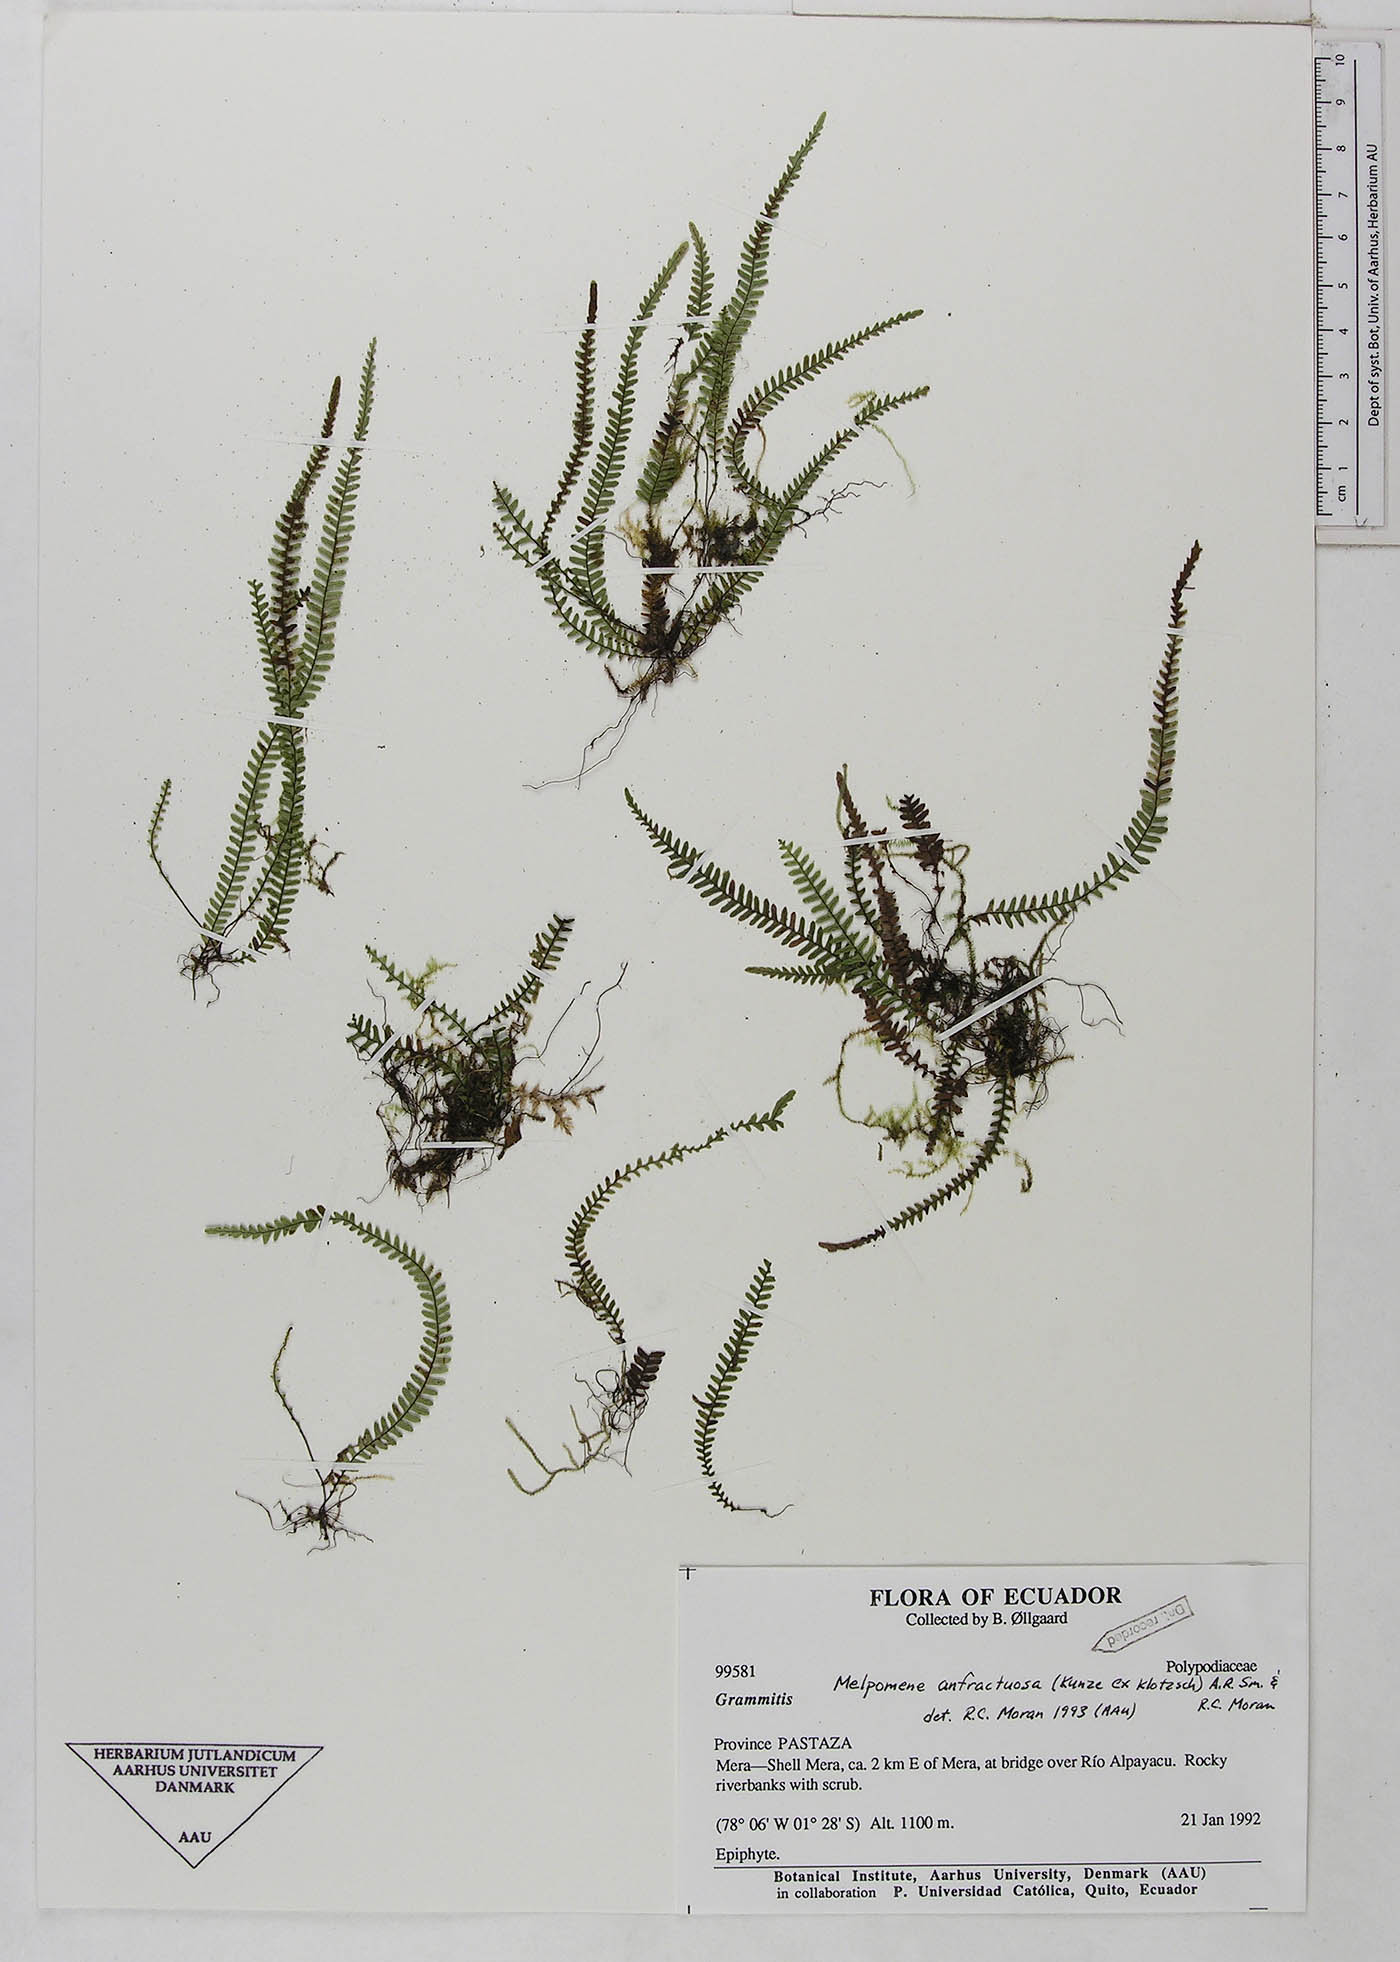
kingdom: Plantae
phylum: Tracheophyta
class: Polypodiopsida
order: Polypodiales
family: Polypodiaceae
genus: Ascogrammitis
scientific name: Ascogrammitis anfractuosa
